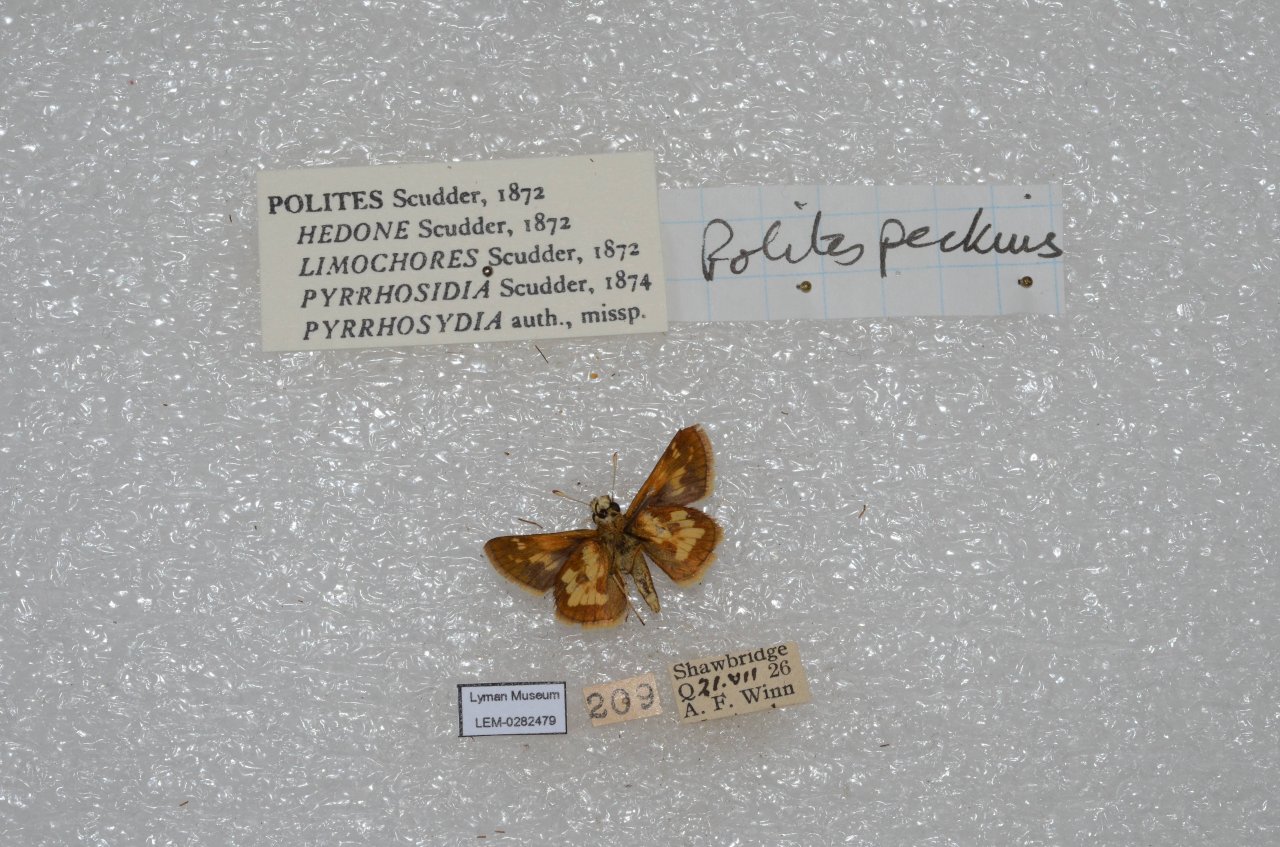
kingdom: Animalia
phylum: Arthropoda
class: Insecta
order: Lepidoptera
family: Hesperiidae
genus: Polites
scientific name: Polites coras
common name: Peck's Skipper
